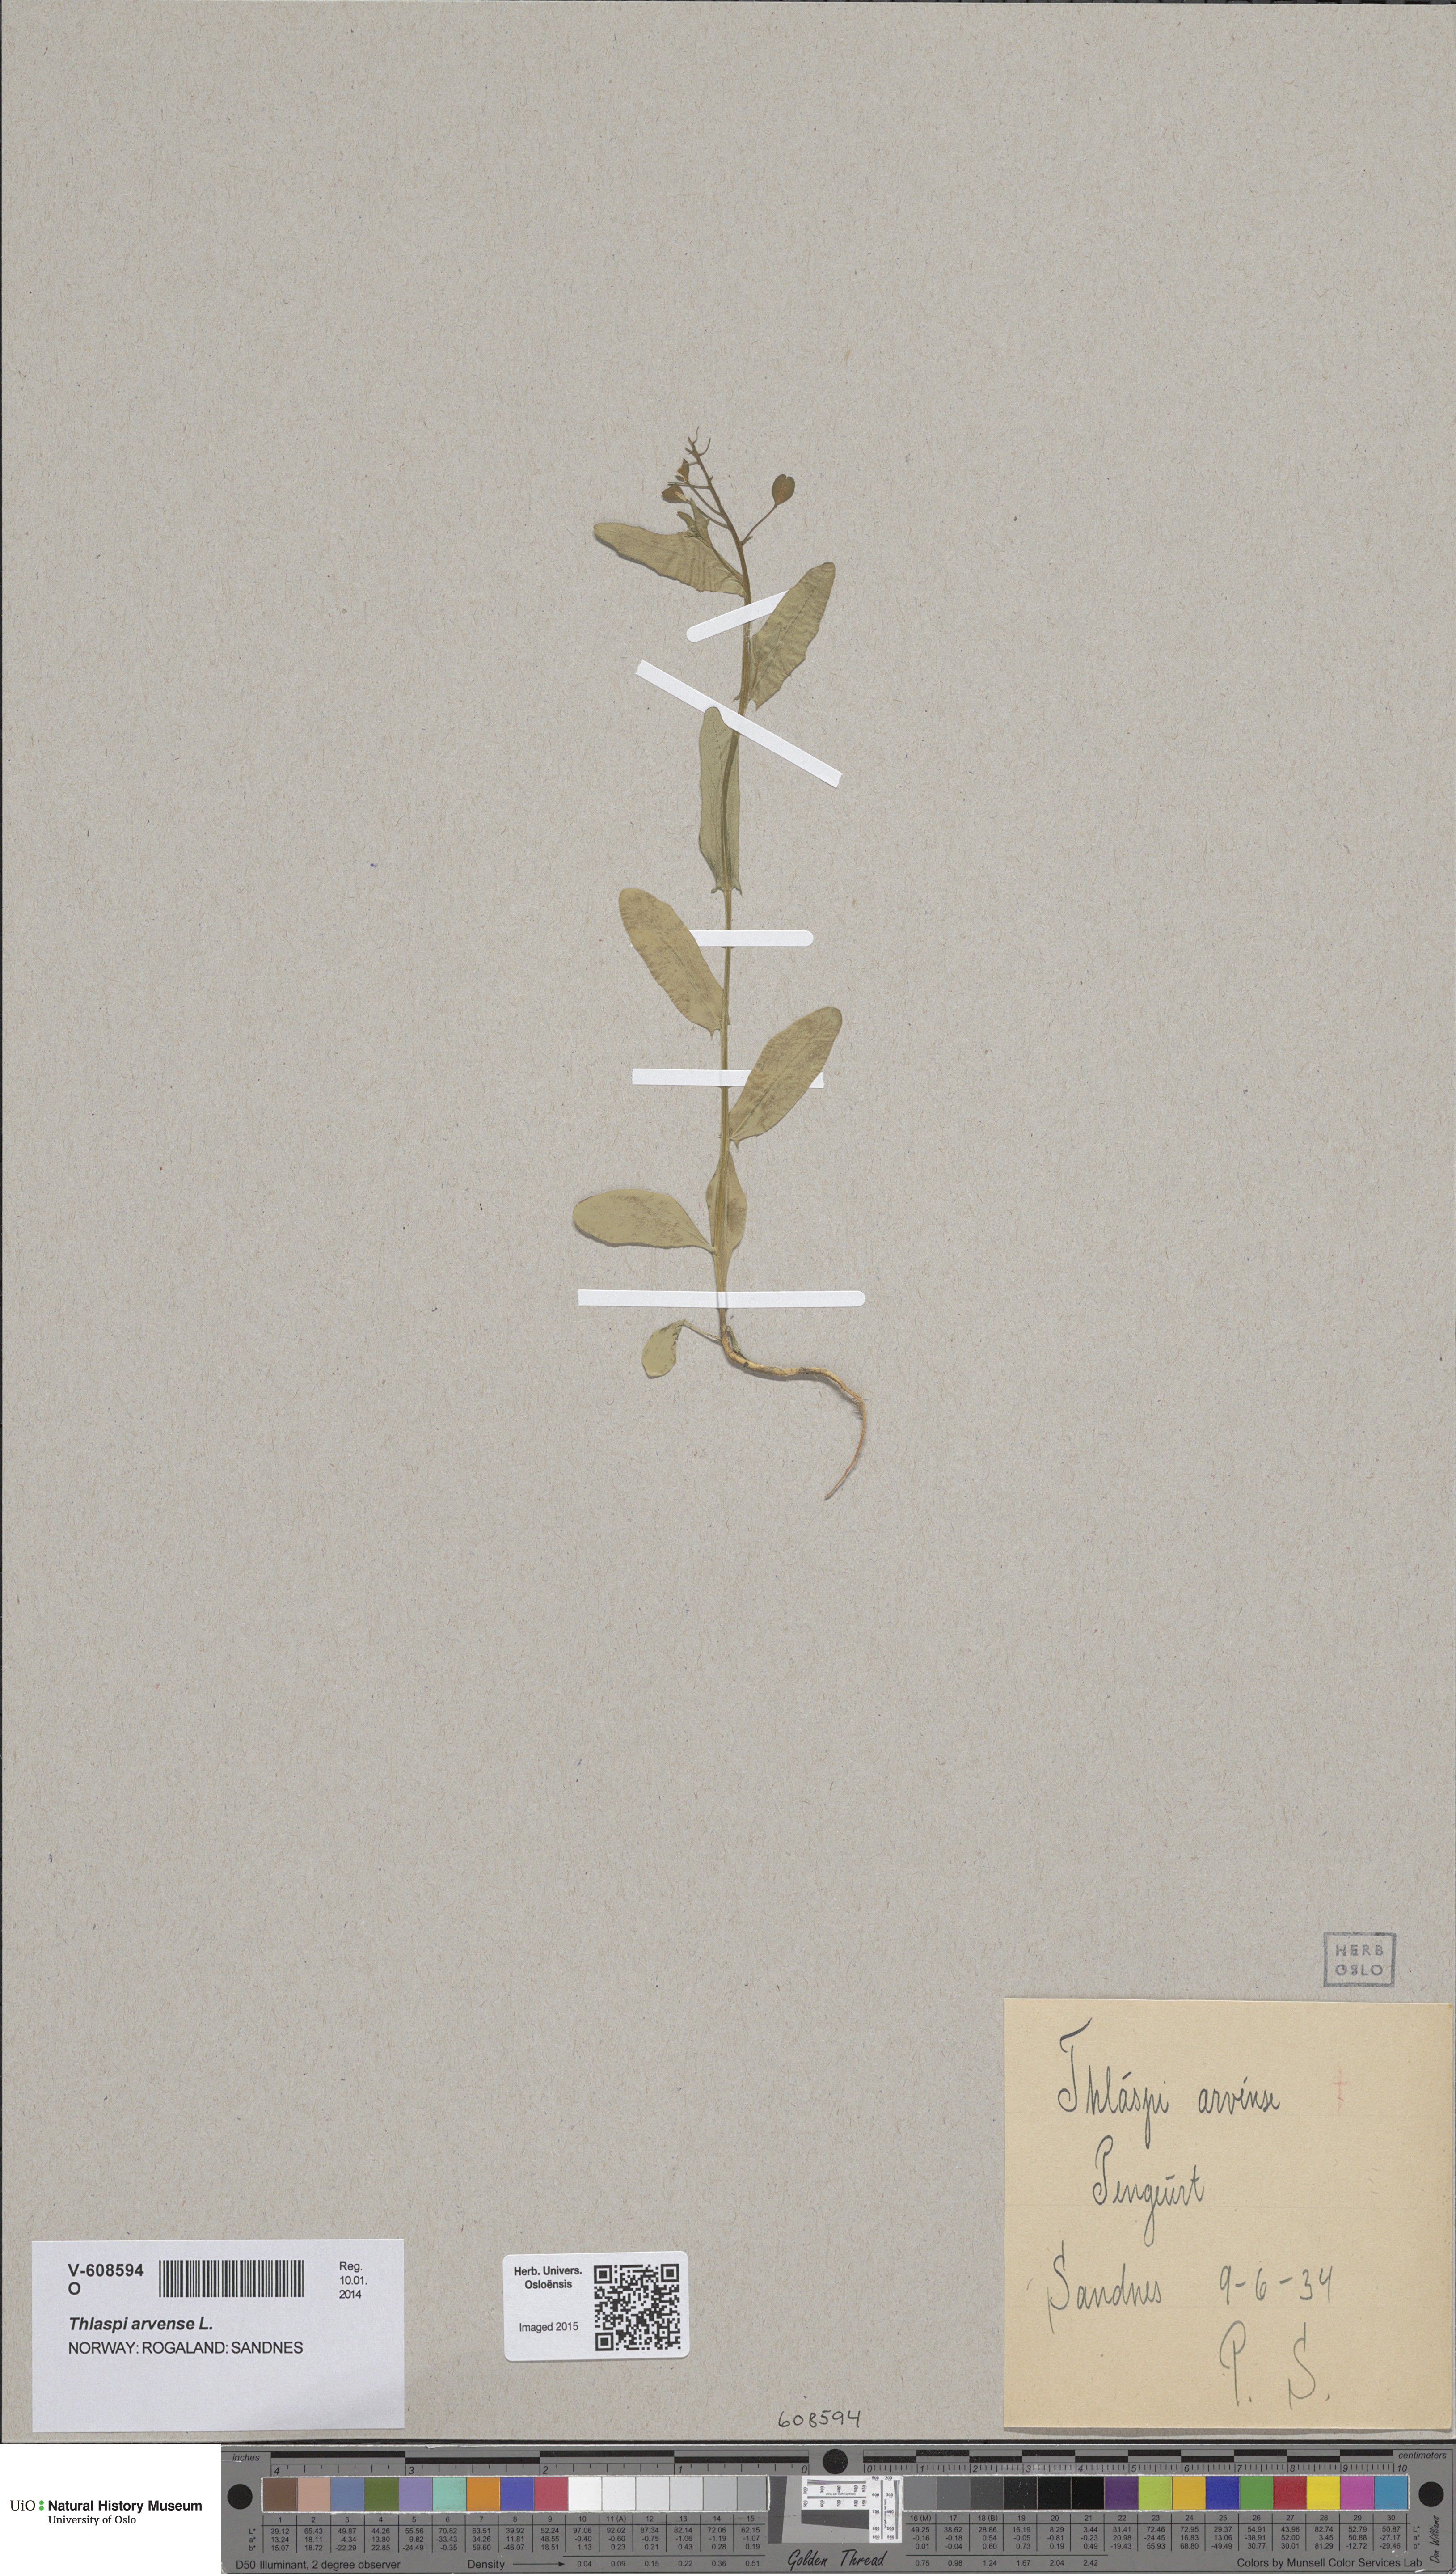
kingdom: Plantae
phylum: Tracheophyta
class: Magnoliopsida
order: Brassicales
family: Brassicaceae
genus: Thlaspi
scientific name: Thlaspi arvense
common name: Field pennycress
